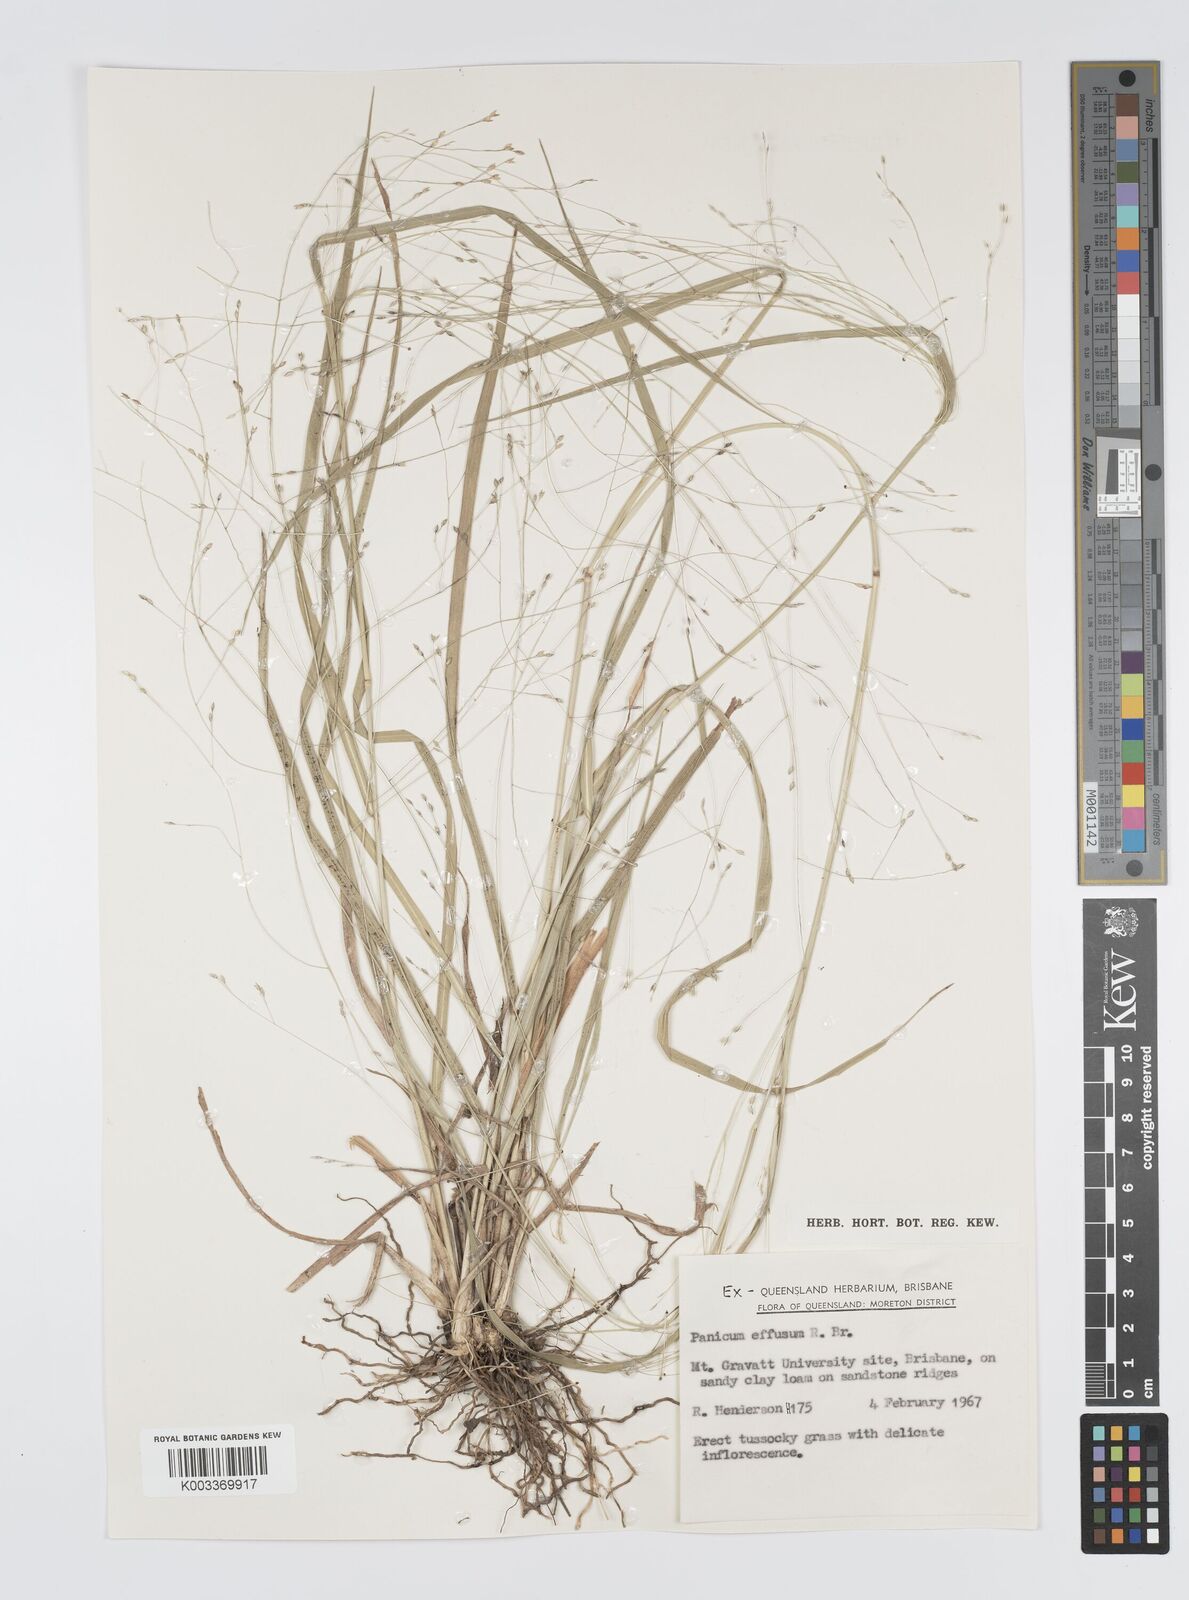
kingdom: Plantae
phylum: Tracheophyta
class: Liliopsida
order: Poales
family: Poaceae
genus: Panicum
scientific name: Panicum effusum
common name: Hairy panic grass
